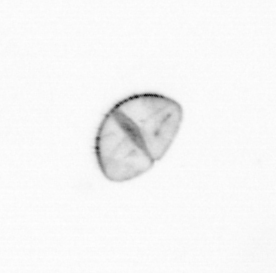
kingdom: Chromista
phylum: Ochrophyta
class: Bacillariophyceae
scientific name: Bacillariophyceae
